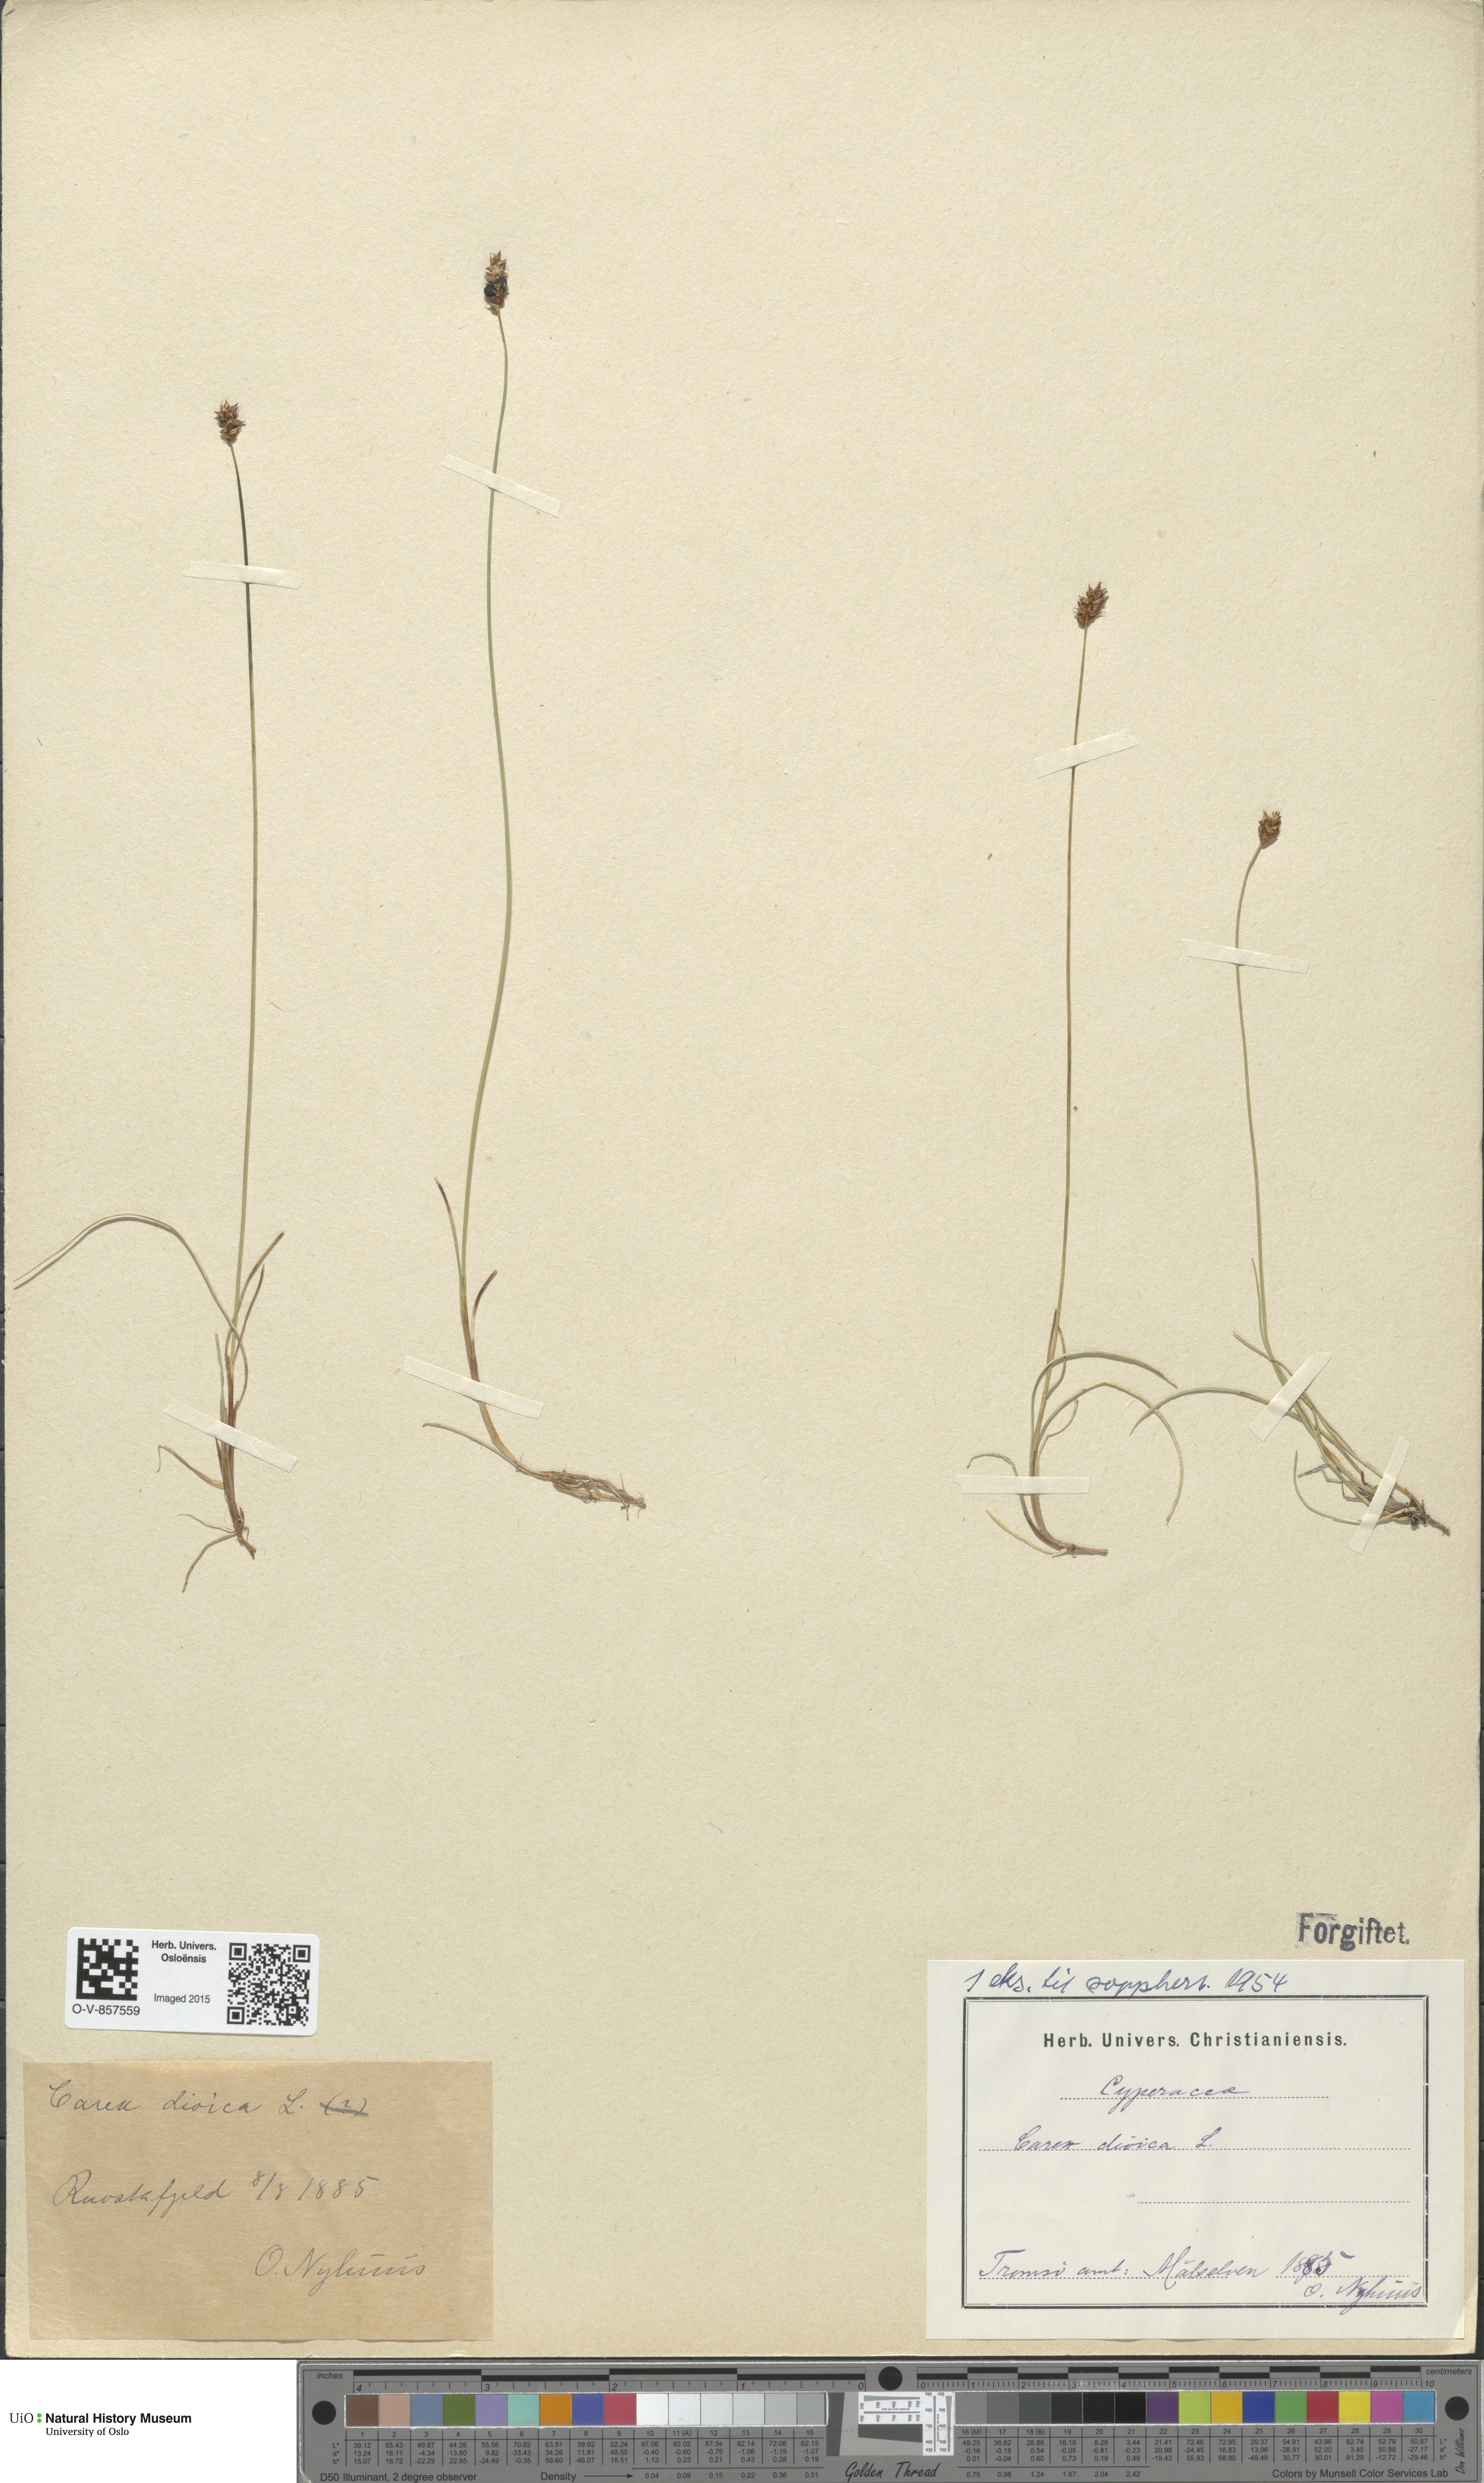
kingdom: Plantae
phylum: Tracheophyta
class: Liliopsida
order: Poales
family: Cyperaceae
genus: Carex
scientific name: Carex dioica
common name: Dioecious sedge
